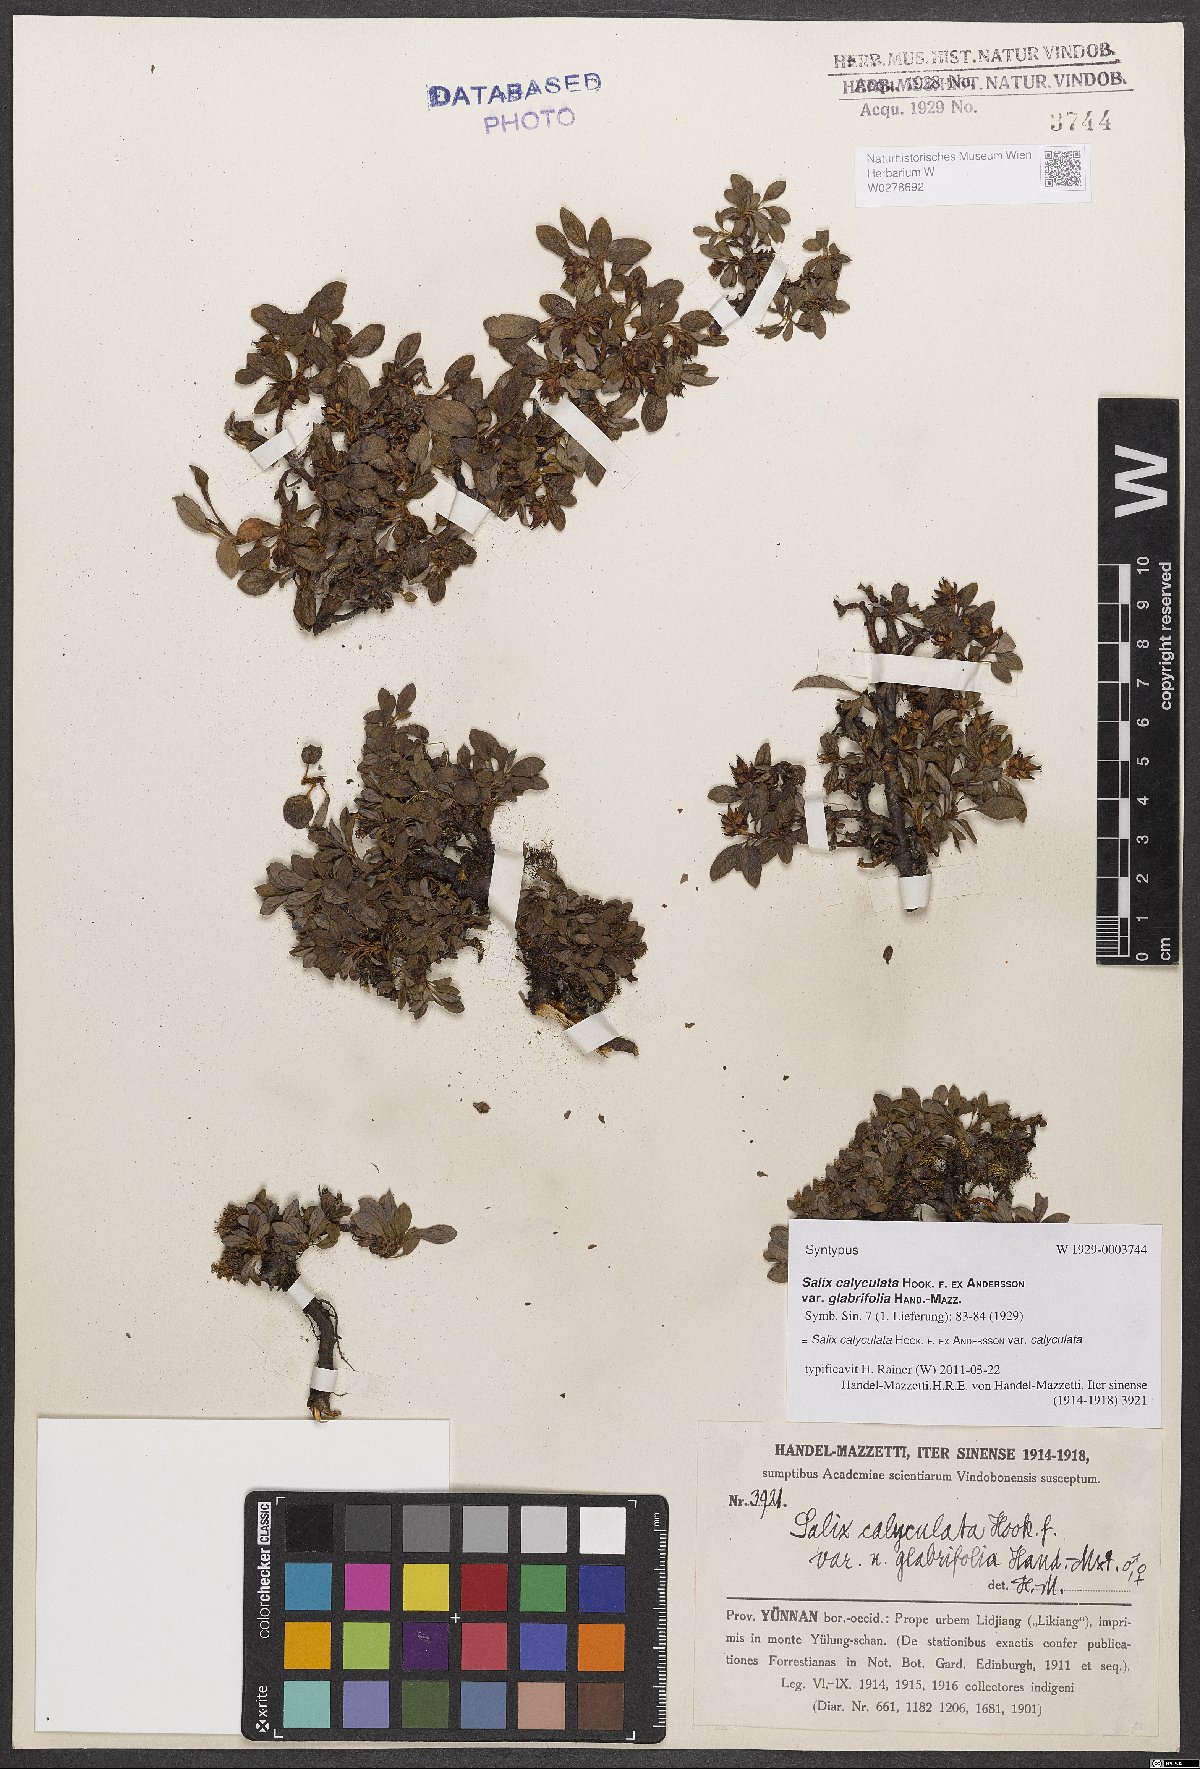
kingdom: Plantae
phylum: Tracheophyta
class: Magnoliopsida
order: Malpighiales
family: Salicaceae
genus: Salix
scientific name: Salix lindleyana
